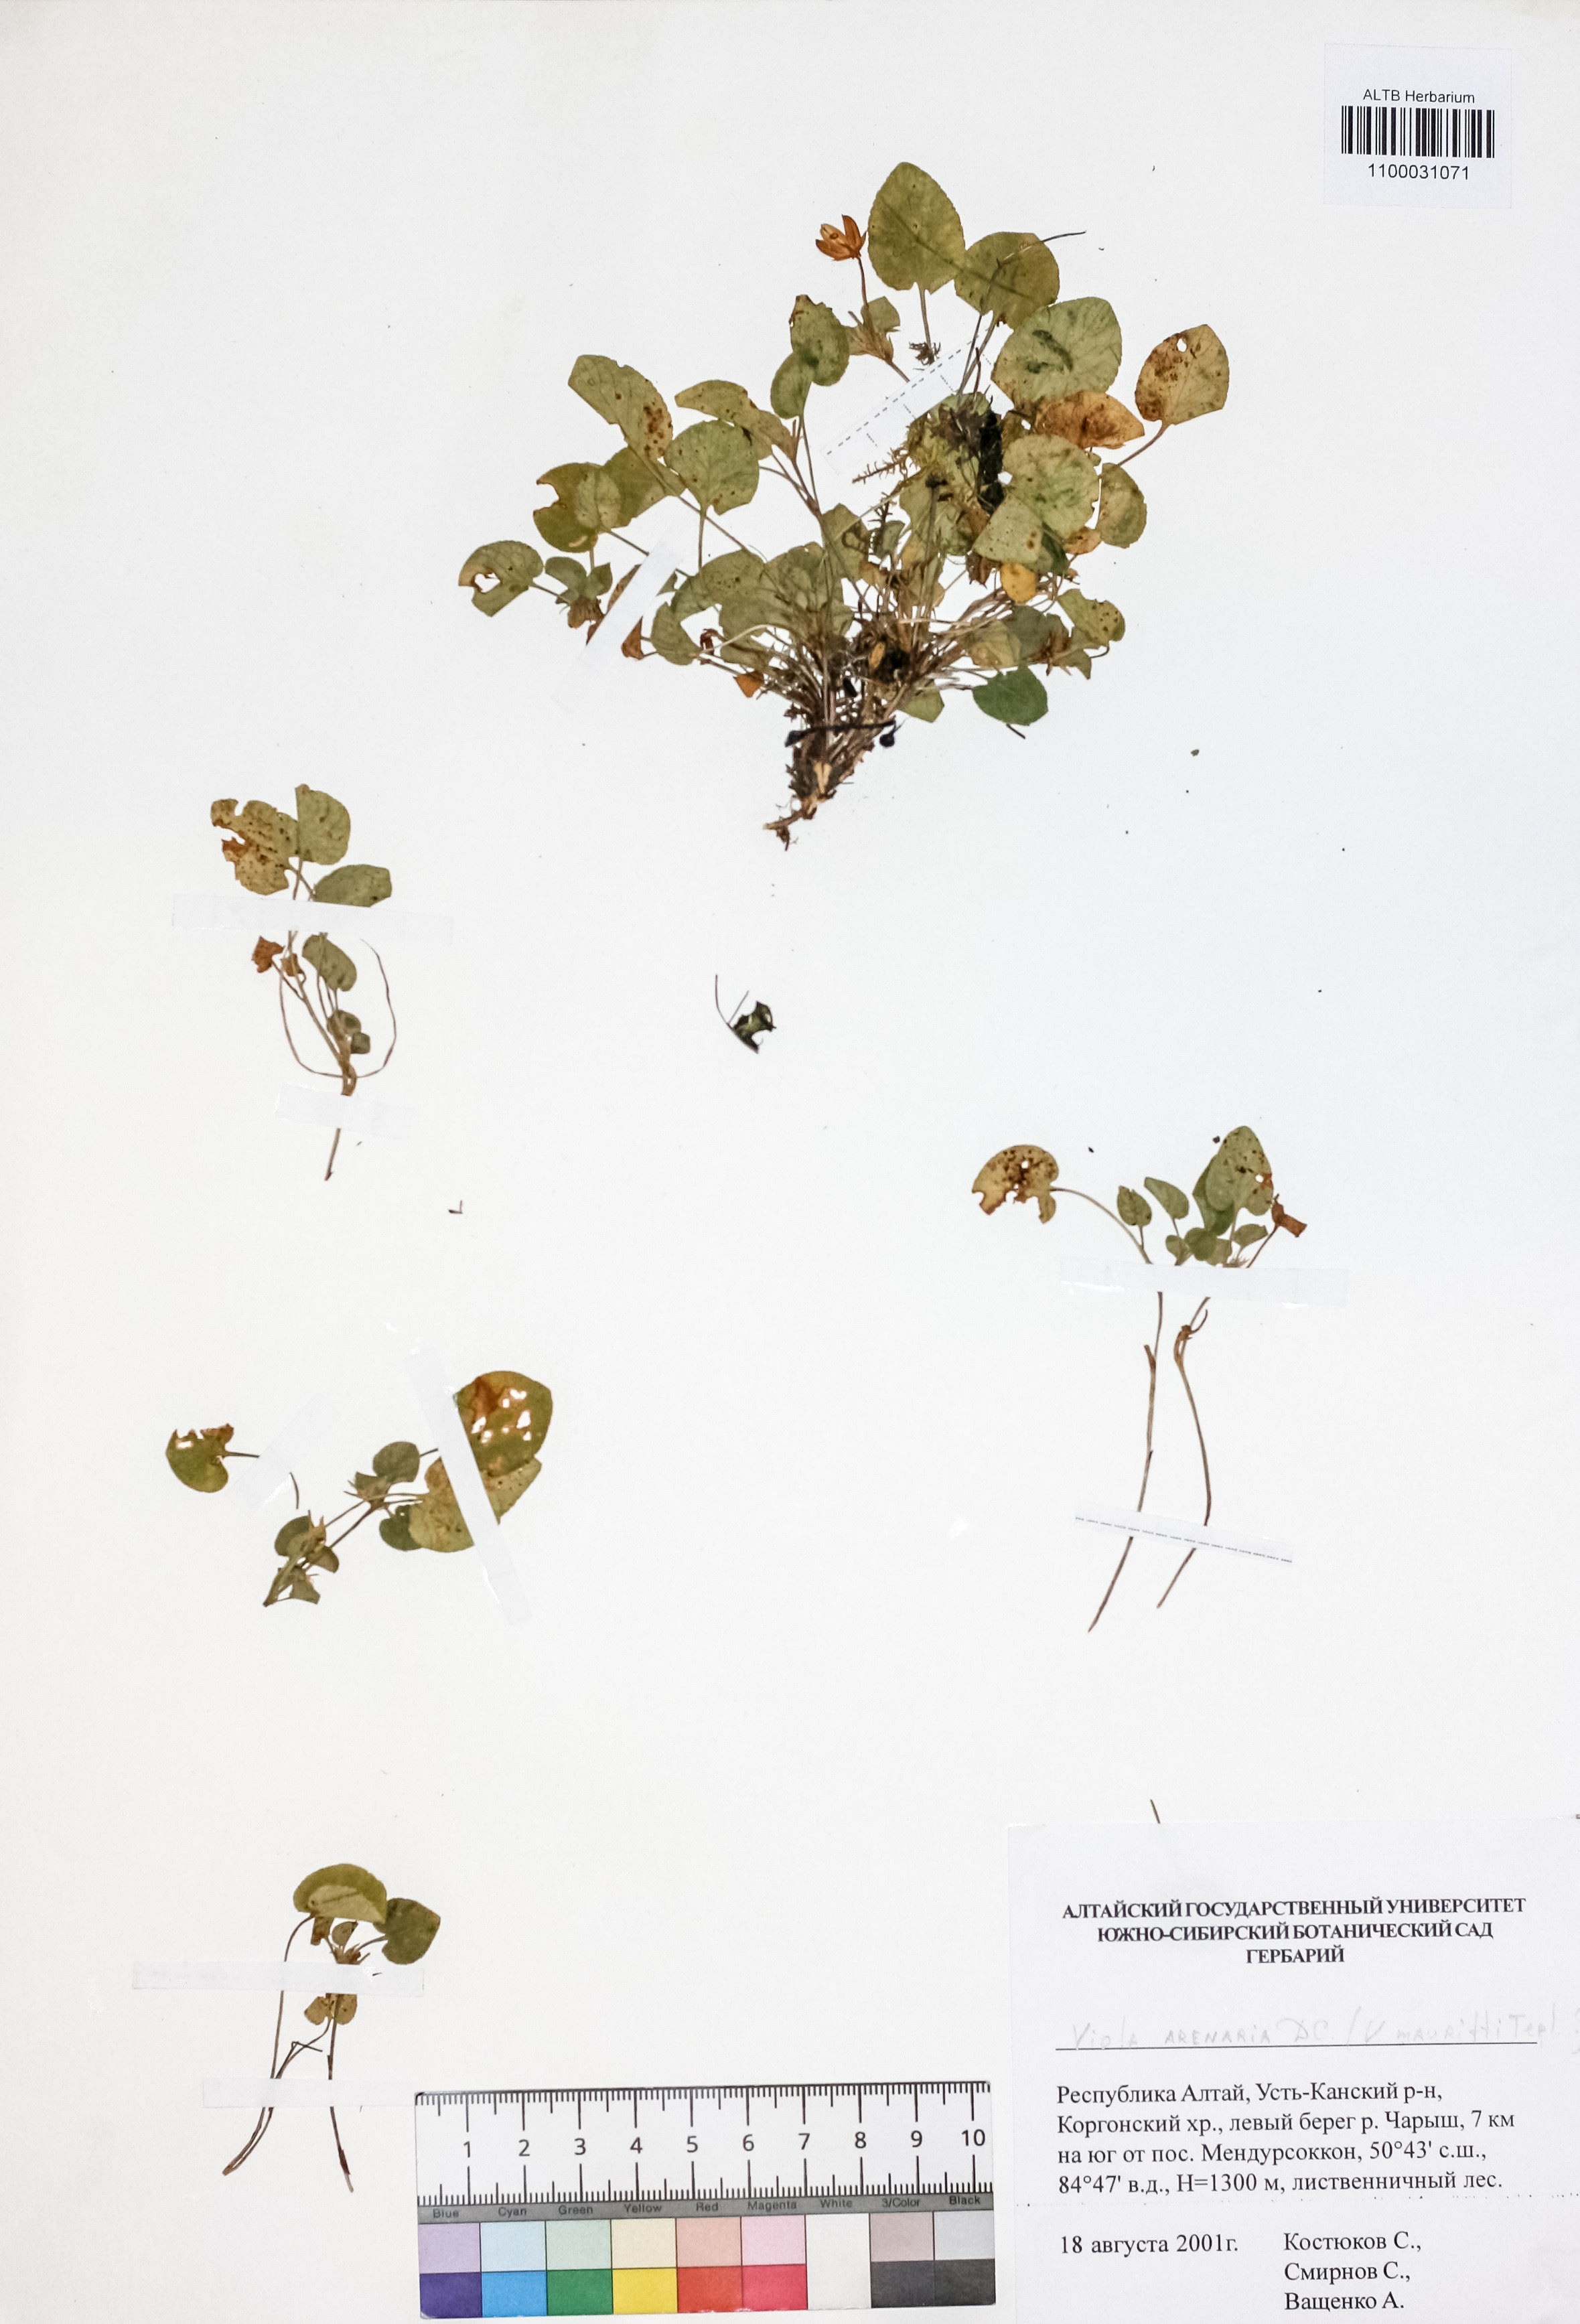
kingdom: Plantae
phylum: Tracheophyta
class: Magnoliopsida
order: Malpighiales
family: Violaceae
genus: Viola
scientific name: Viola rupestris
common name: Teesdale violet
